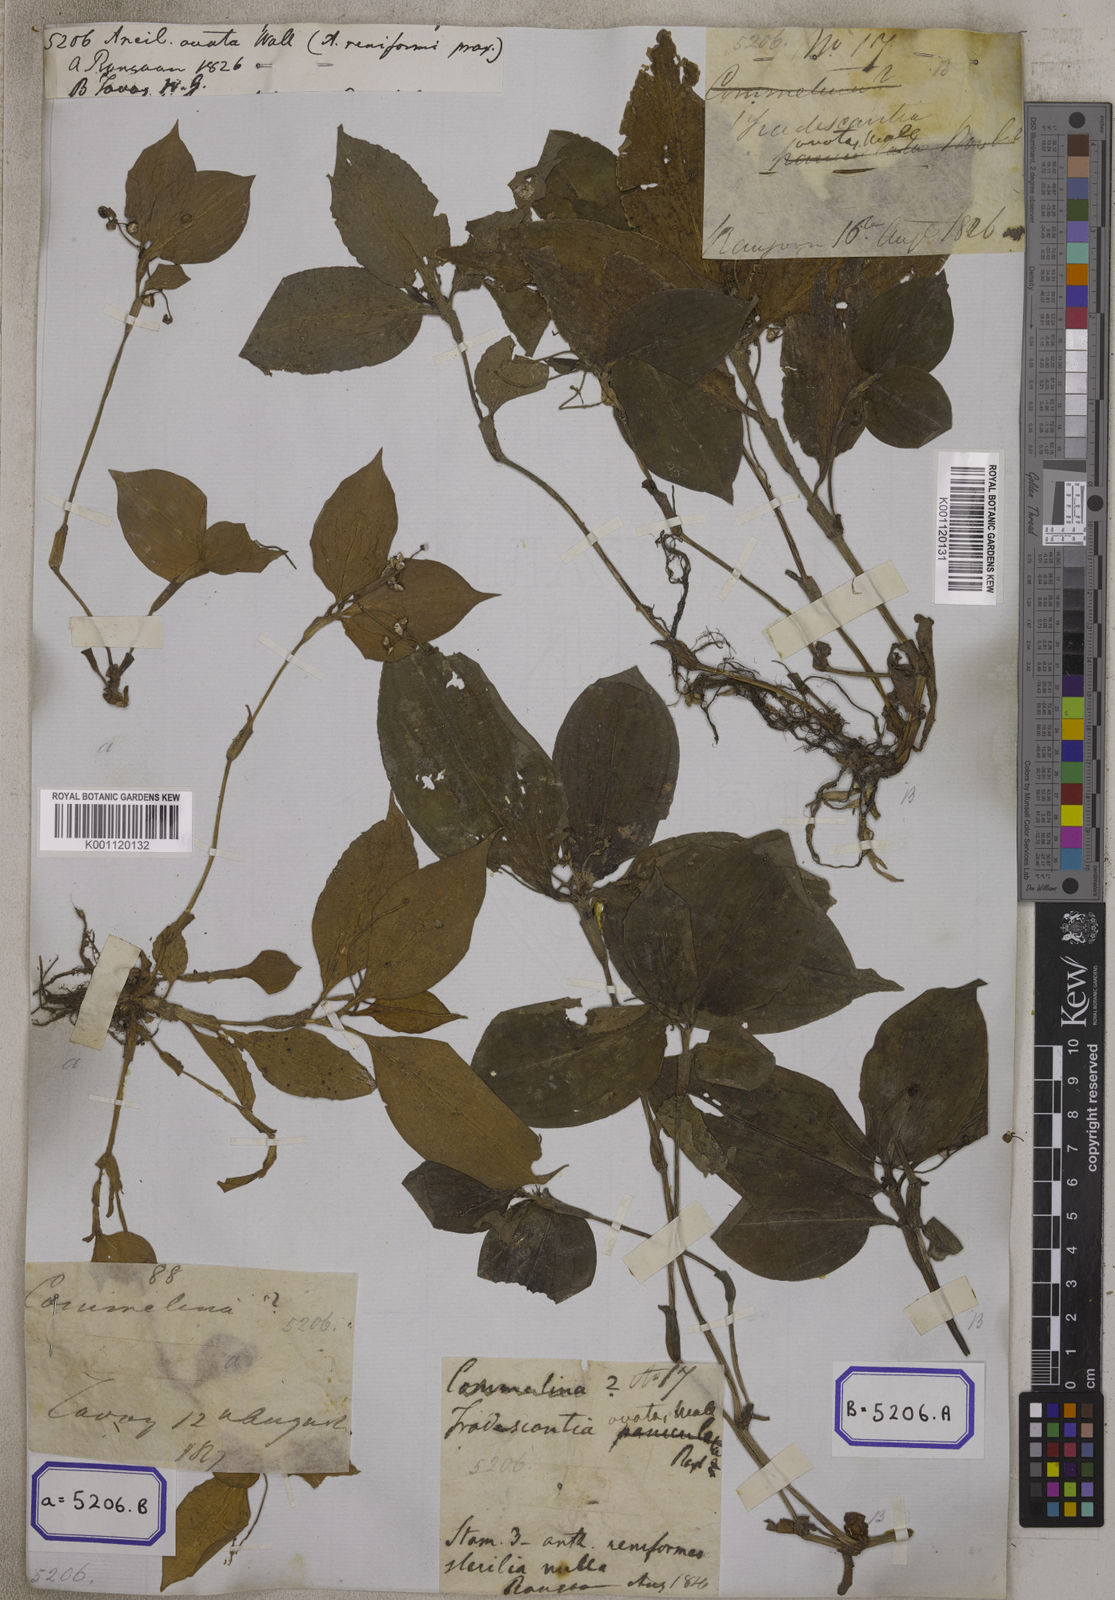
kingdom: Plantae
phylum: Tracheophyta
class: Liliopsida
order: Commelinales
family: Commelinaceae
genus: Aneilema
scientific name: Aneilema
